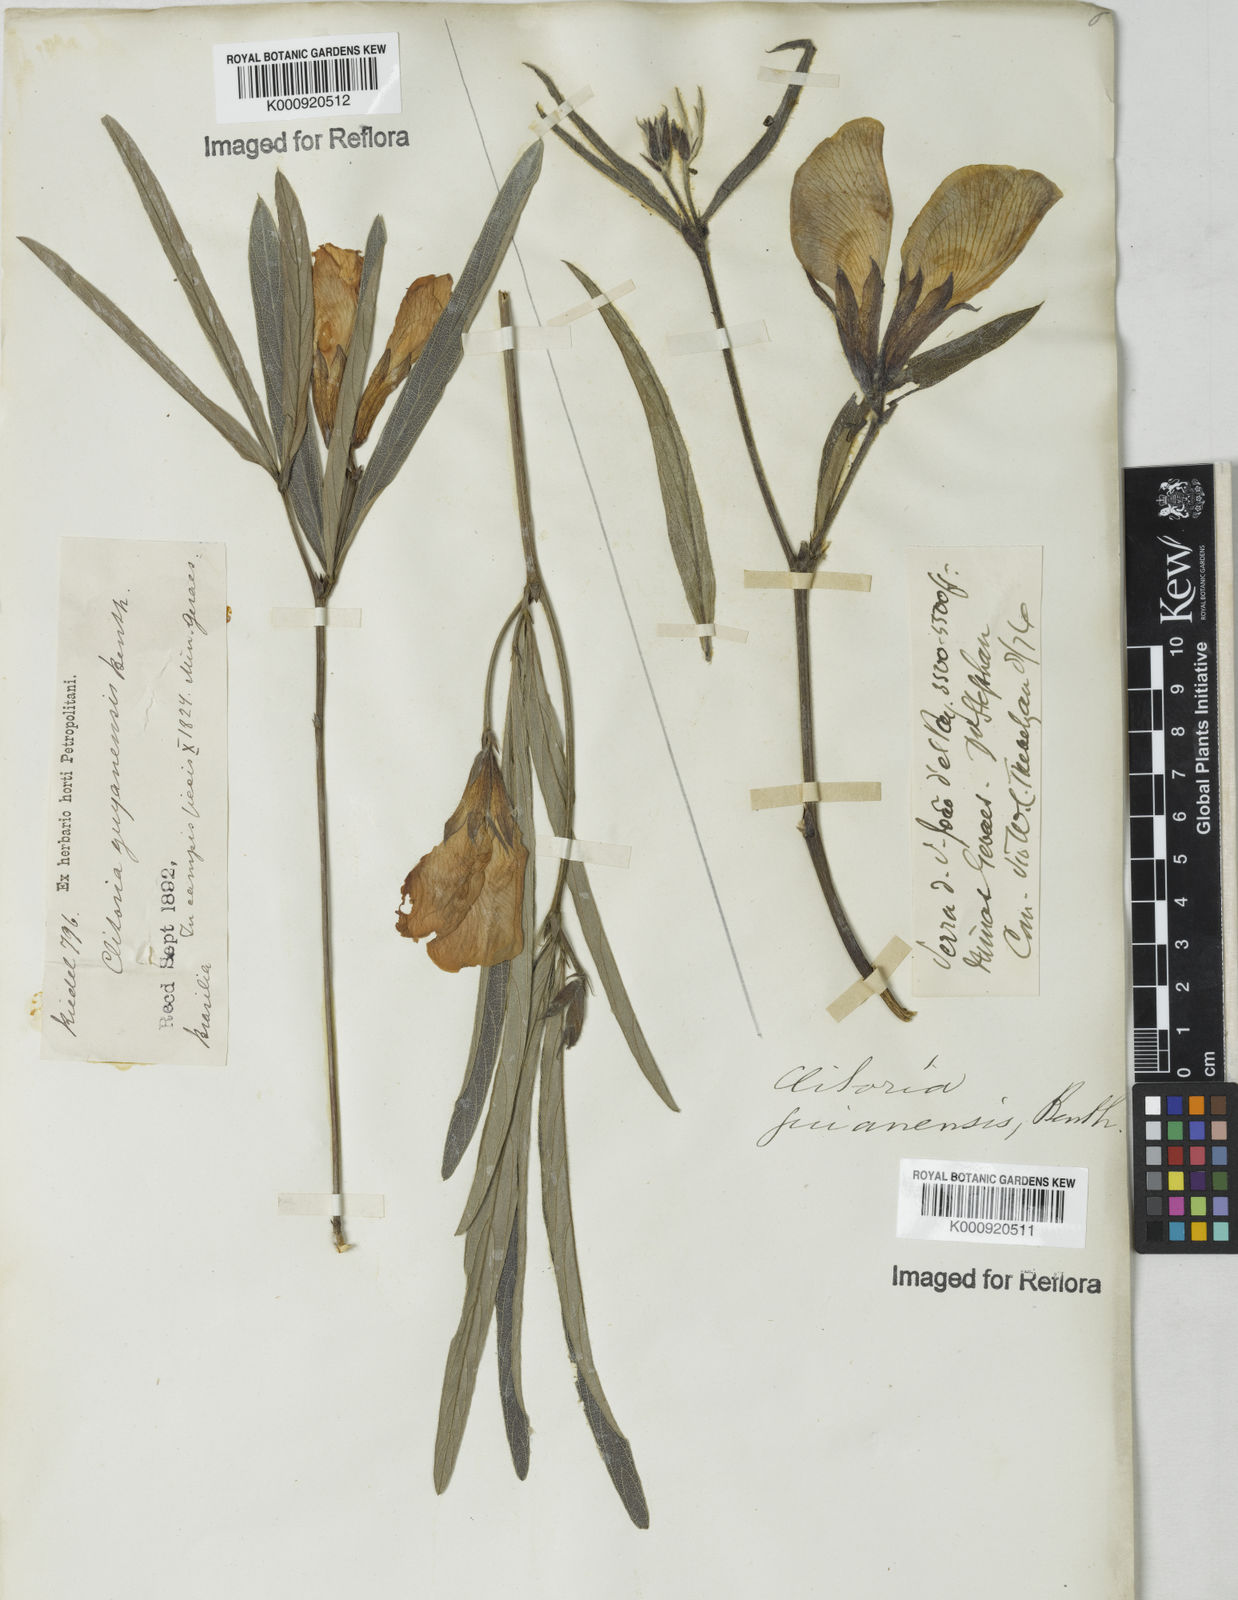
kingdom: Plantae
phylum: Tracheophyta
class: Magnoliopsida
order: Fabales
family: Fabaceae
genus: Clitoria
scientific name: Clitoria guianensis
